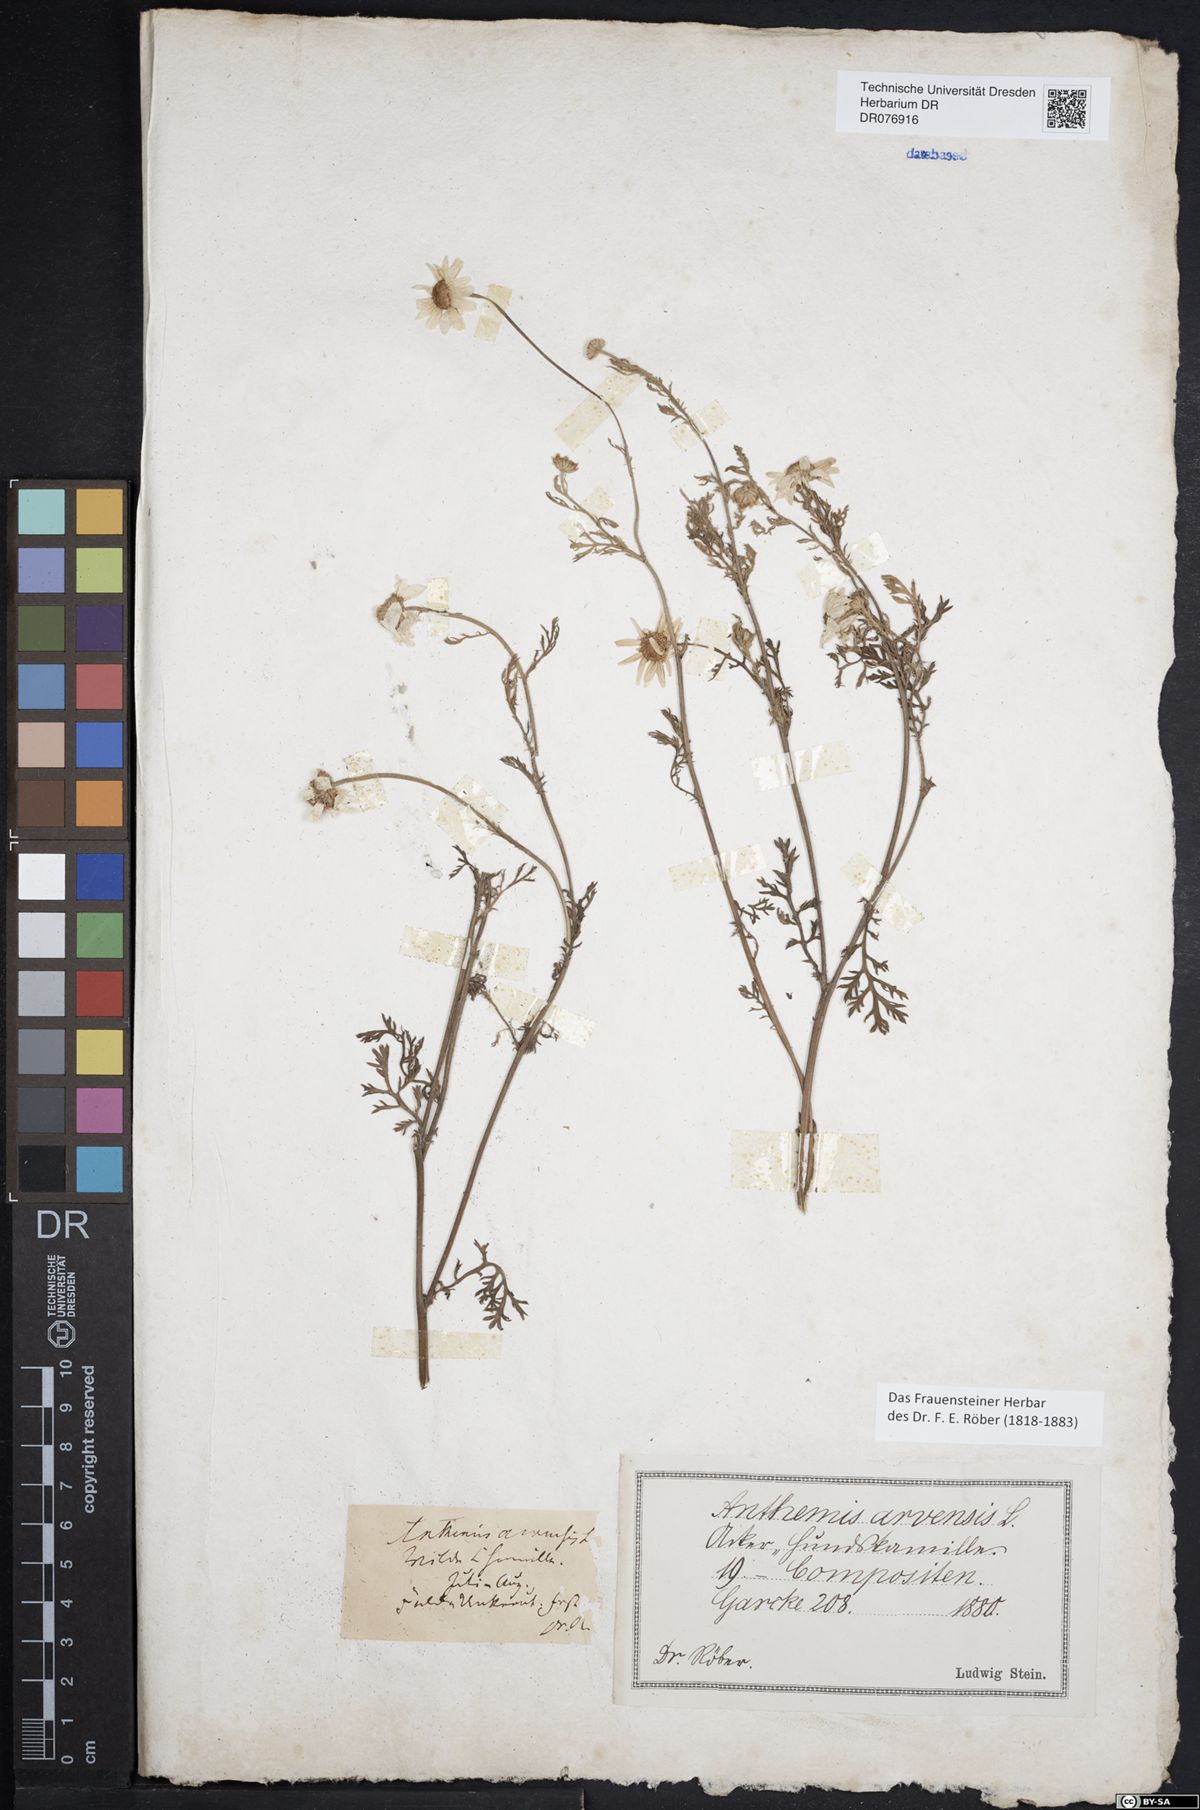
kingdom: Plantae
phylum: Tracheophyta
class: Magnoliopsida
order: Asterales
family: Asteraceae
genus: Anthemis
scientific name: Anthemis arvensis
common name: Corn chamomile
